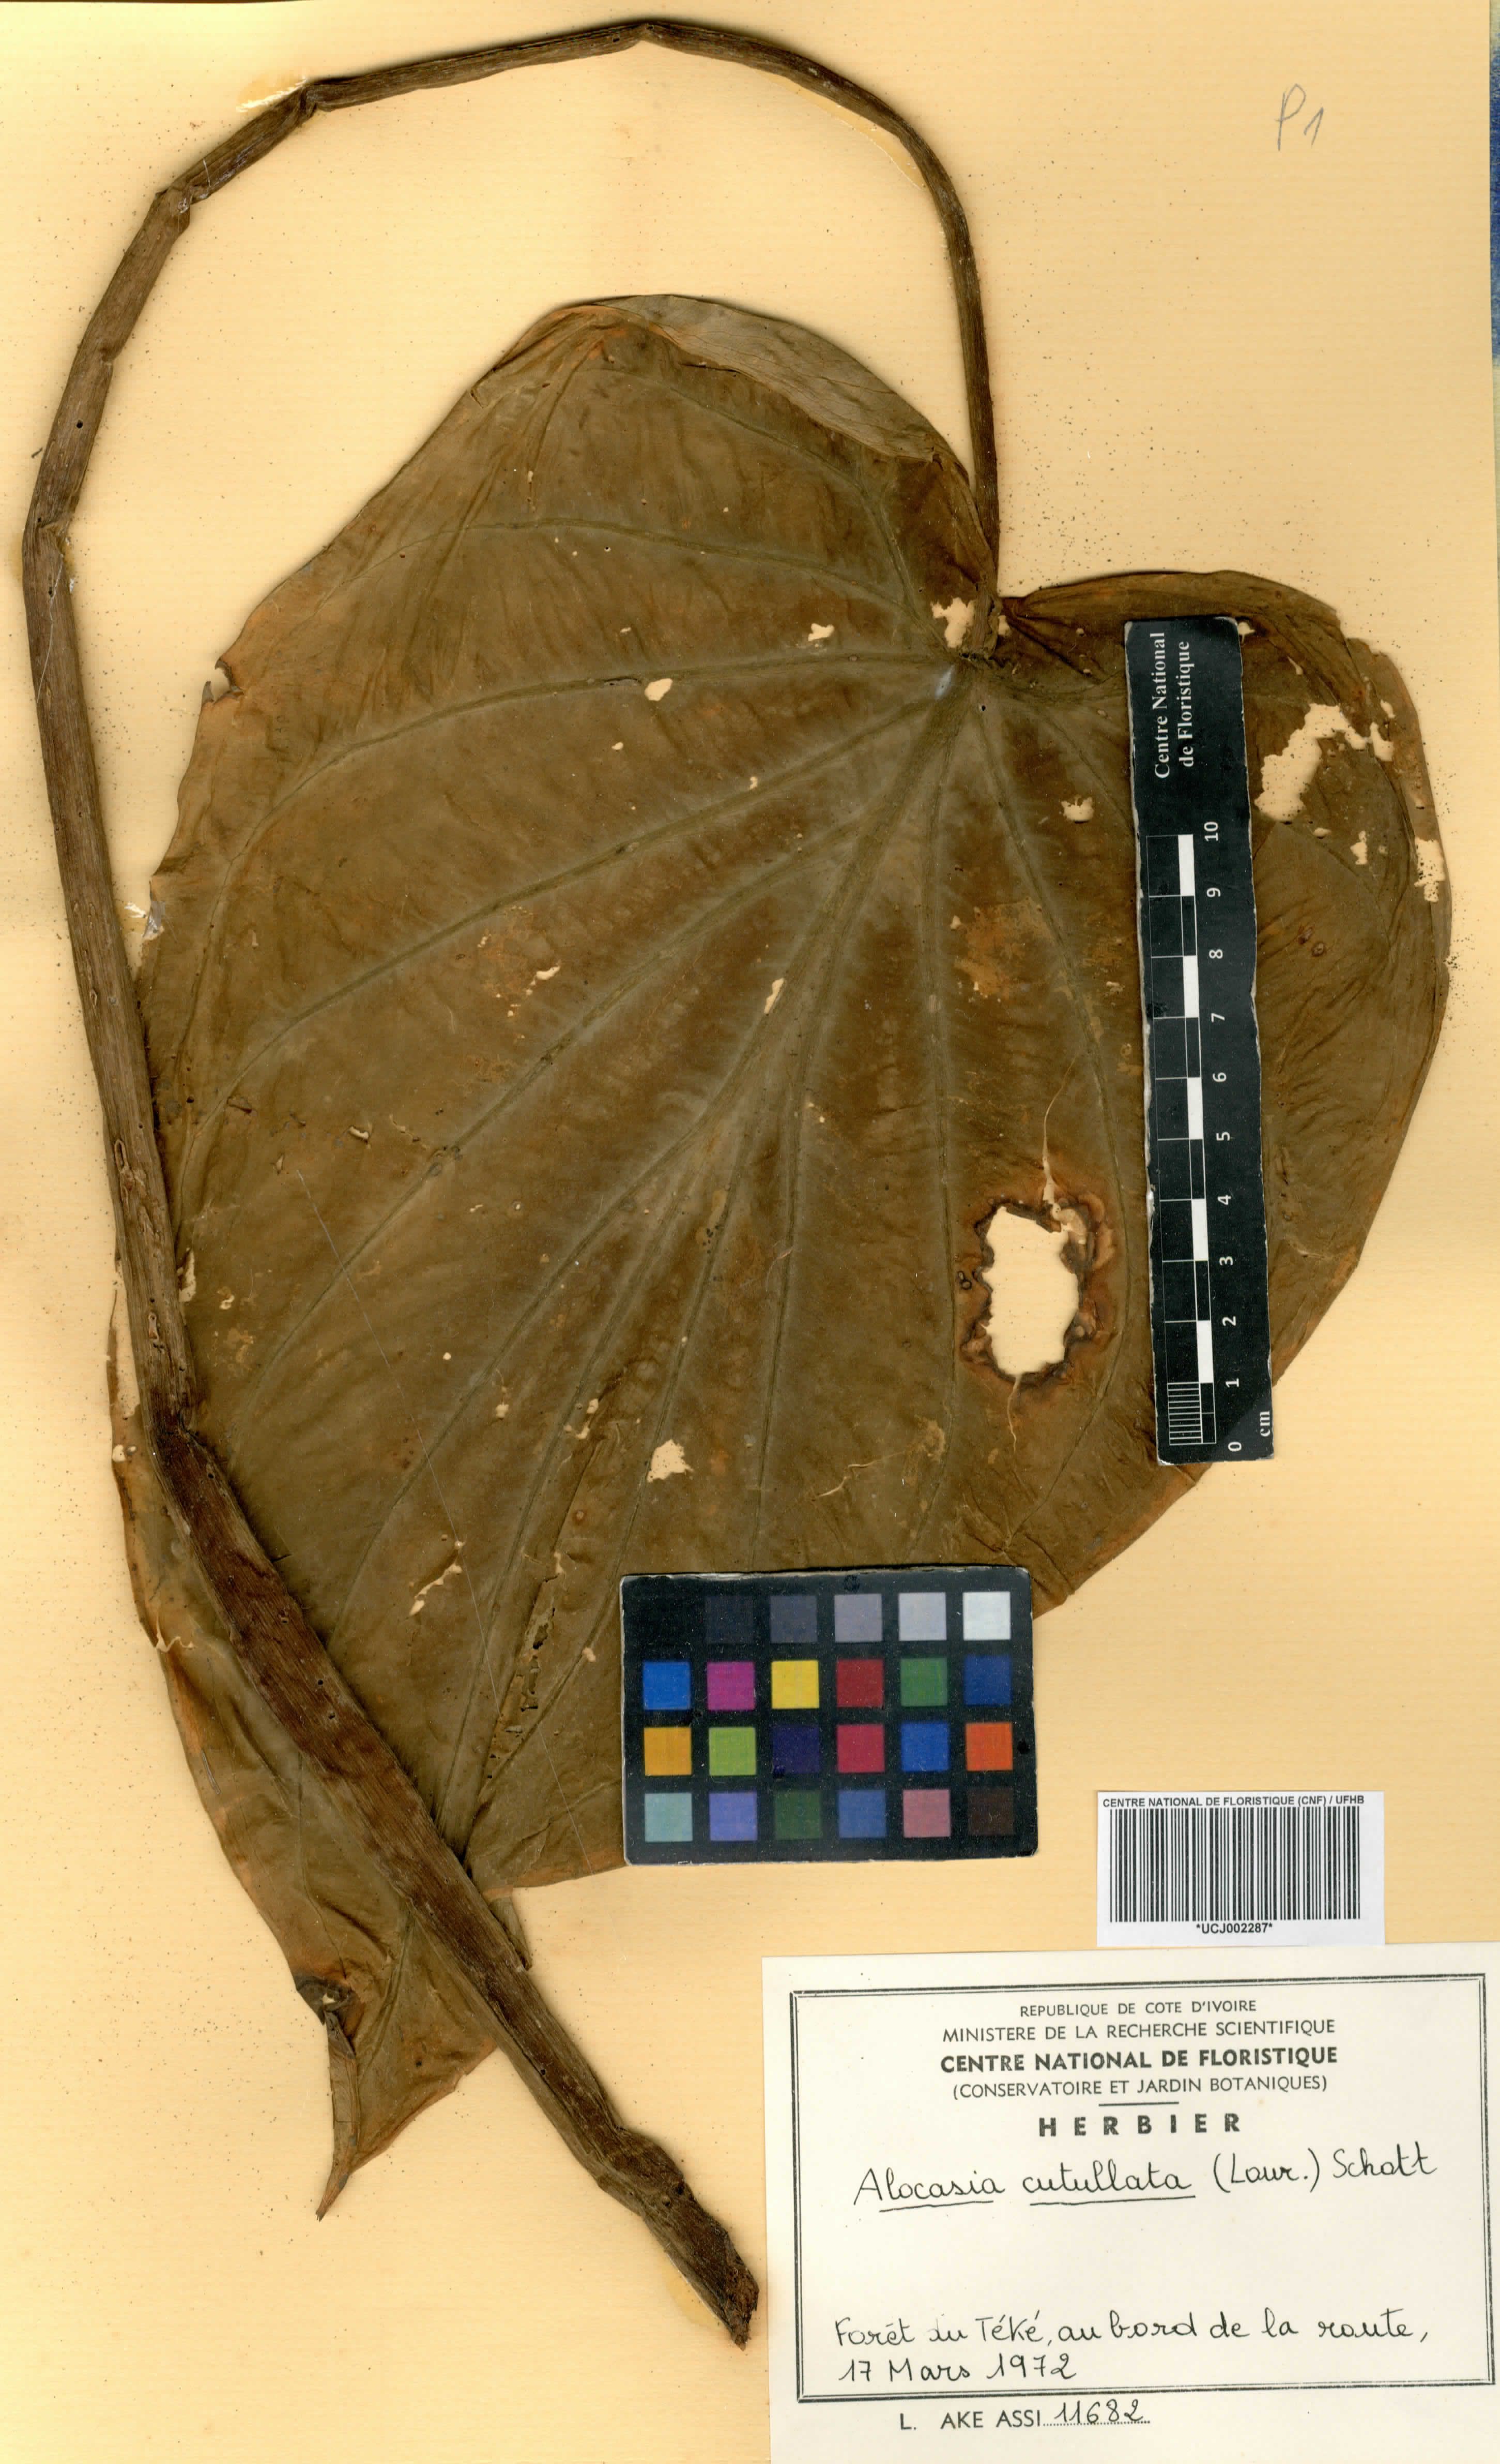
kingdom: Plantae
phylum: Tracheophyta
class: Liliopsida
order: Alismatales
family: Araceae
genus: Alocasia
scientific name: Alocasia cucullata
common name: Buddha's hand
